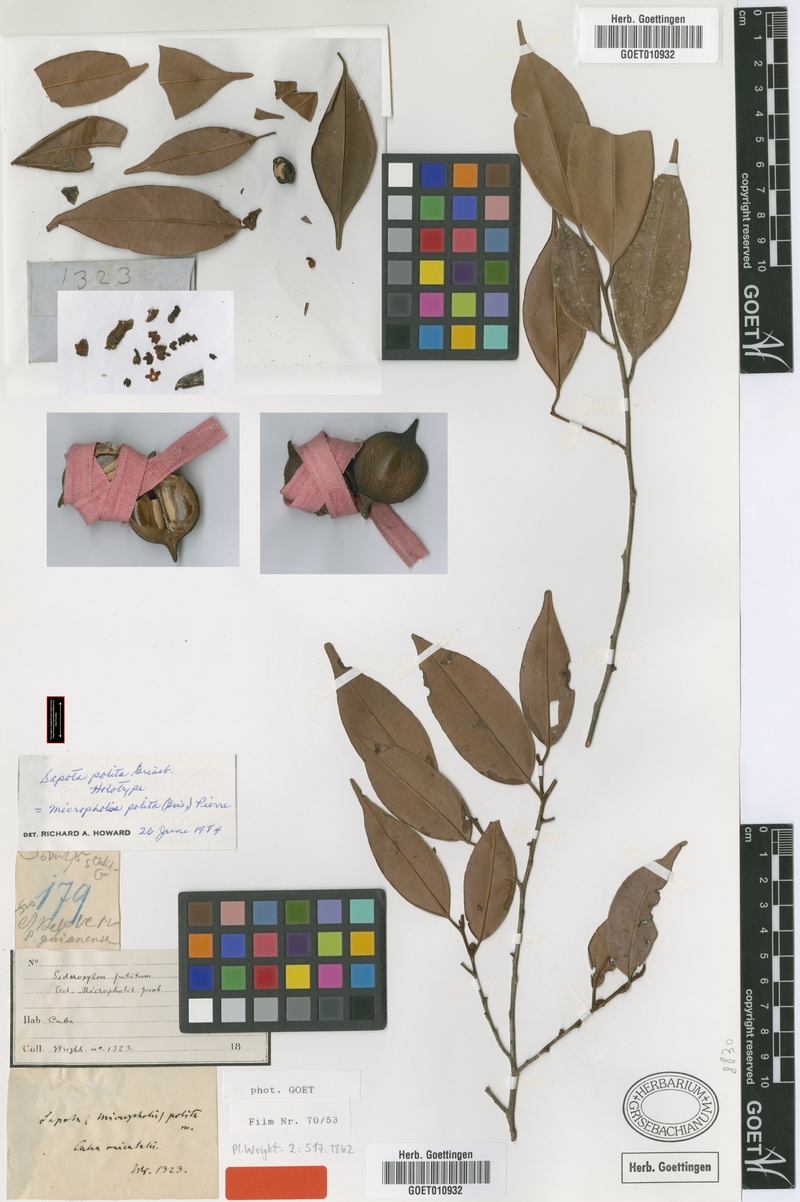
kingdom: Plantae
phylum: Tracheophyta
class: Magnoliopsida
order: Ericales
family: Sapotaceae
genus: Micropholis
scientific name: Micropholis polita
